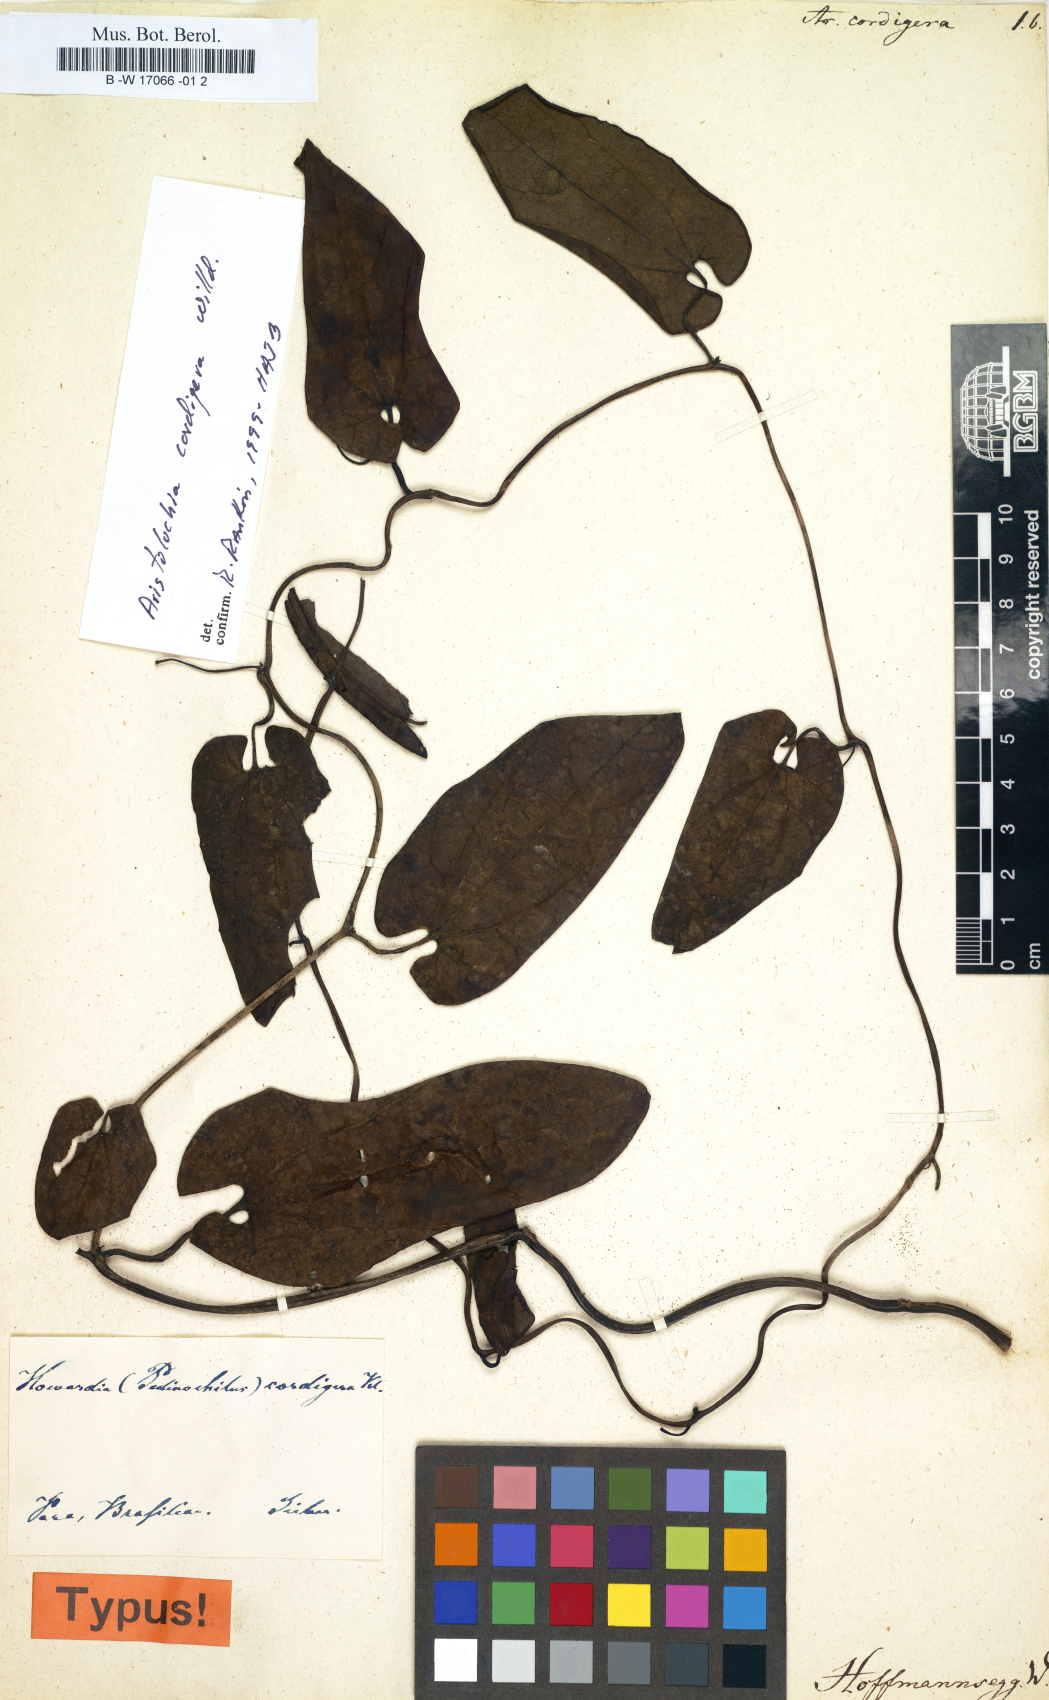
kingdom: Plantae
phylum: Tracheophyta
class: Magnoliopsida
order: Piperales
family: Aristolochiaceae
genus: Aristolochia
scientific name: Aristolochia cordigera
